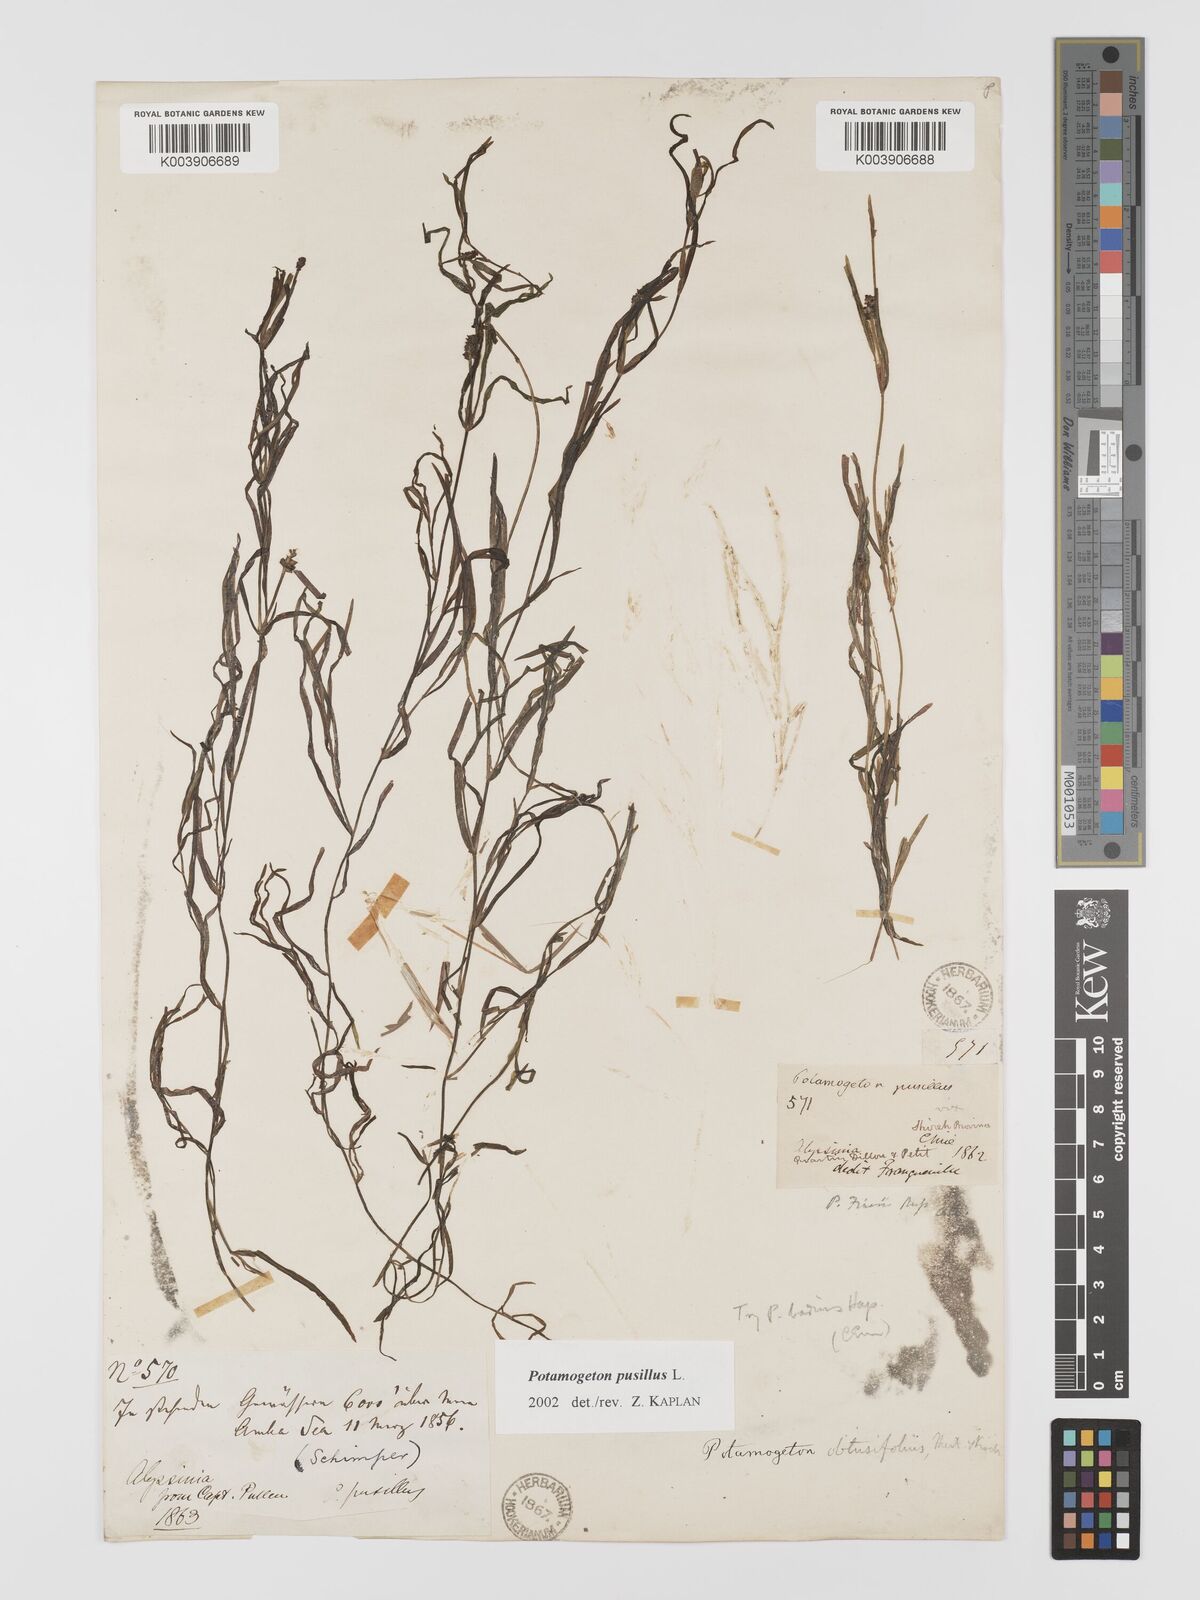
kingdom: Plantae
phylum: Tracheophyta
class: Liliopsida
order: Alismatales
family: Potamogetonaceae
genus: Potamogeton
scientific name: Potamogeton pusillus
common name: Lesser pondweed
